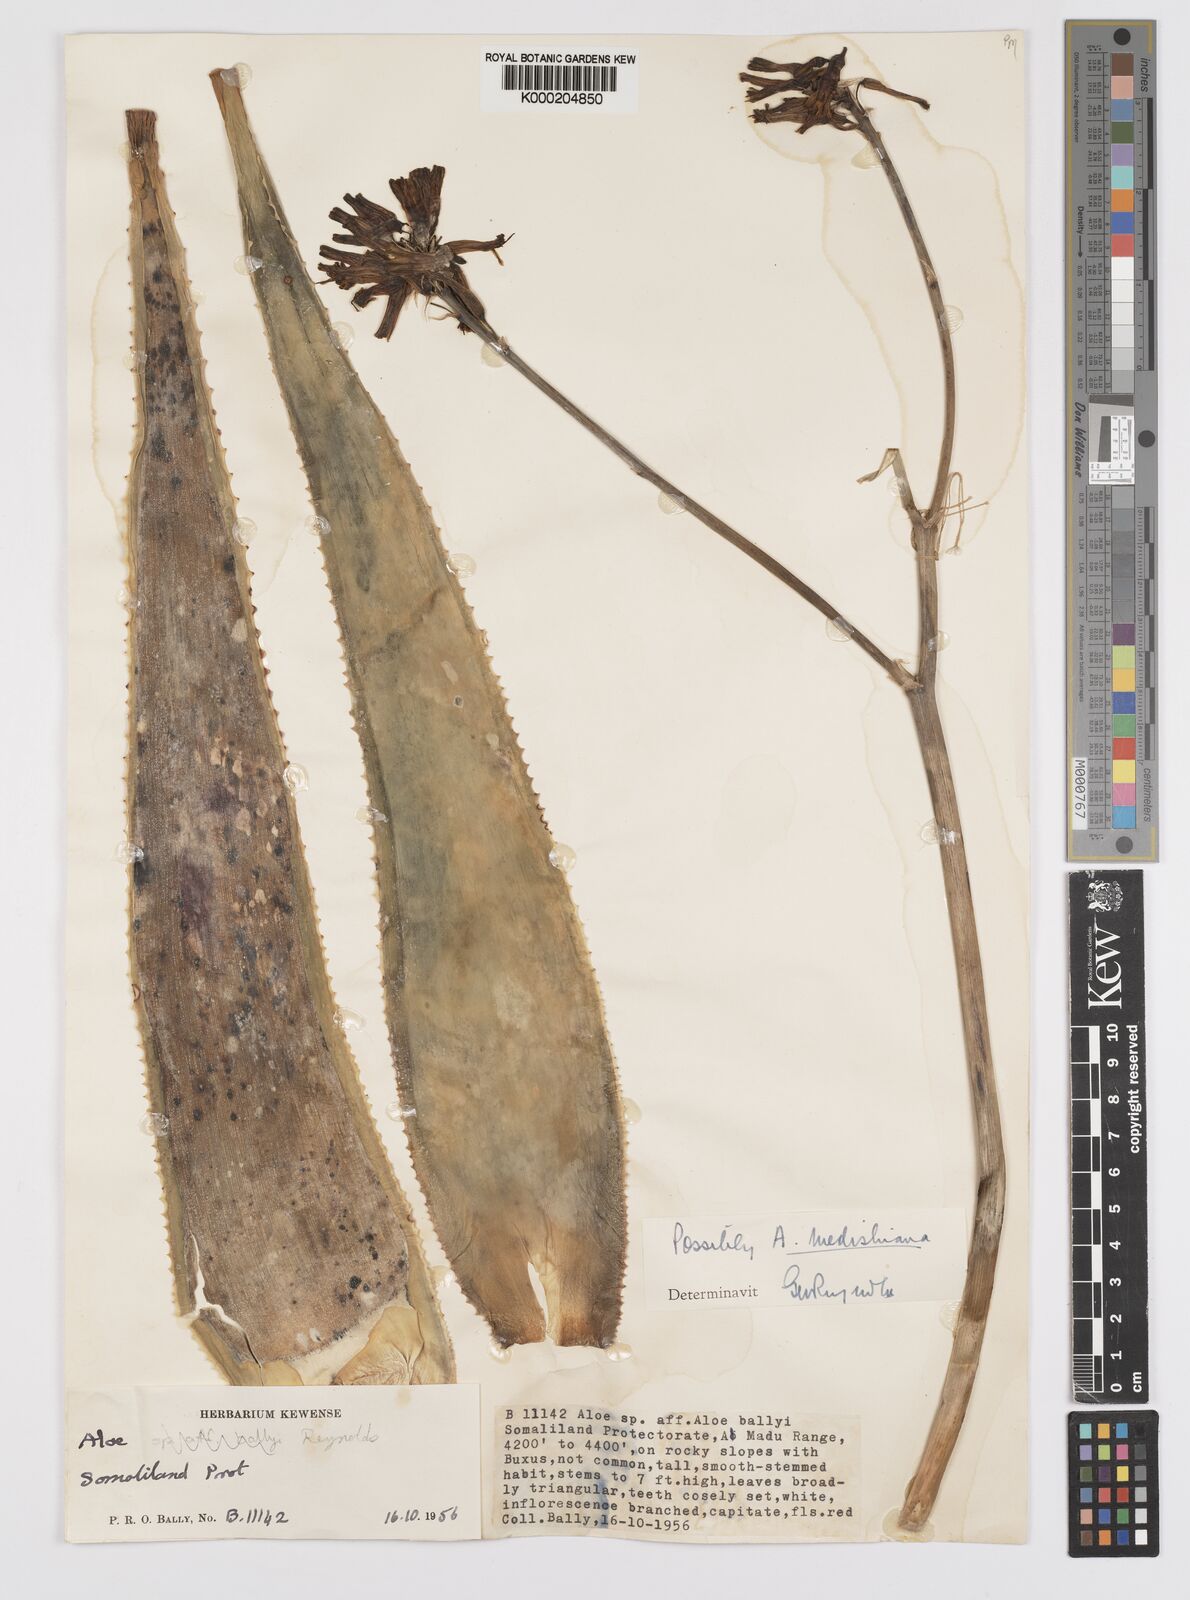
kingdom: Plantae
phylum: Tracheophyta
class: Liliopsida
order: Asparagales
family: Asphodelaceae
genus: Aloidendron
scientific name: Aloidendron eminens
